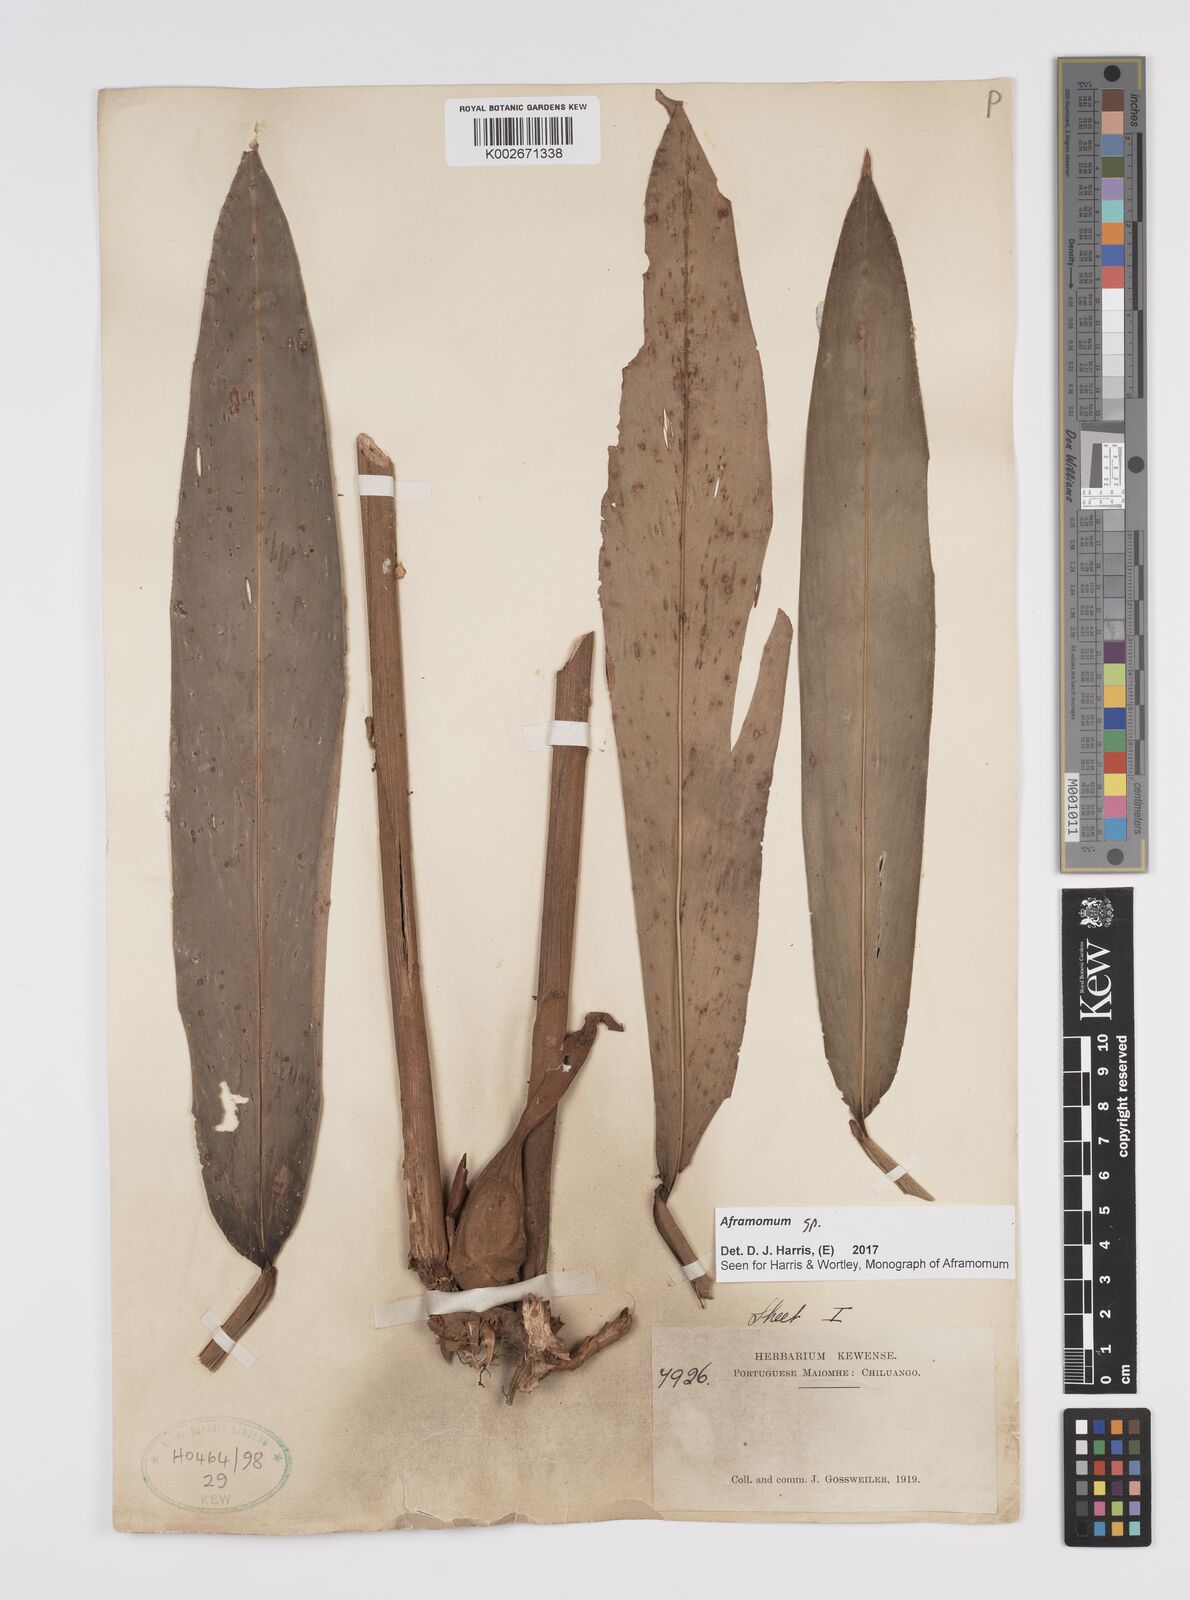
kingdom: Plantae
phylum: Tracheophyta
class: Liliopsida
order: Zingiberales
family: Zingiberaceae
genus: Aframomum
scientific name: Aframomum
